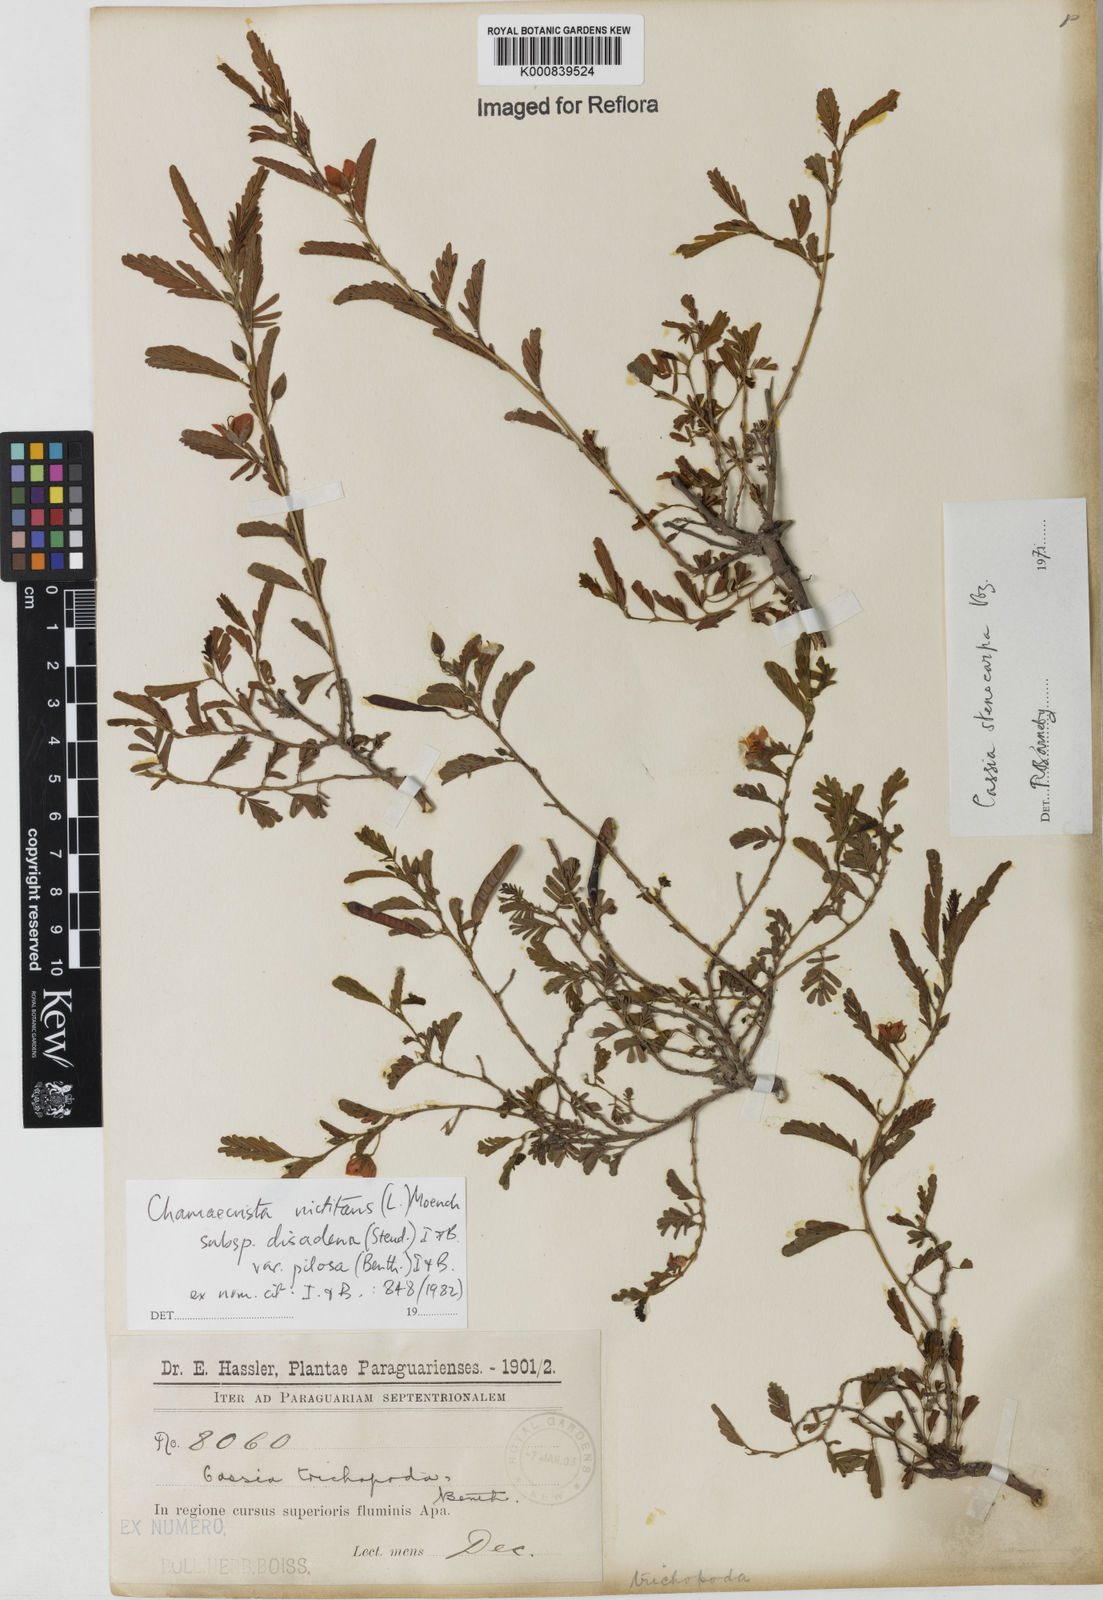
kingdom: Plantae
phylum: Tracheophyta
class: Magnoliopsida
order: Fabales
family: Fabaceae
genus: Chamaecrista
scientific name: Chamaecrista nictitans
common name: Sensitive cassia
